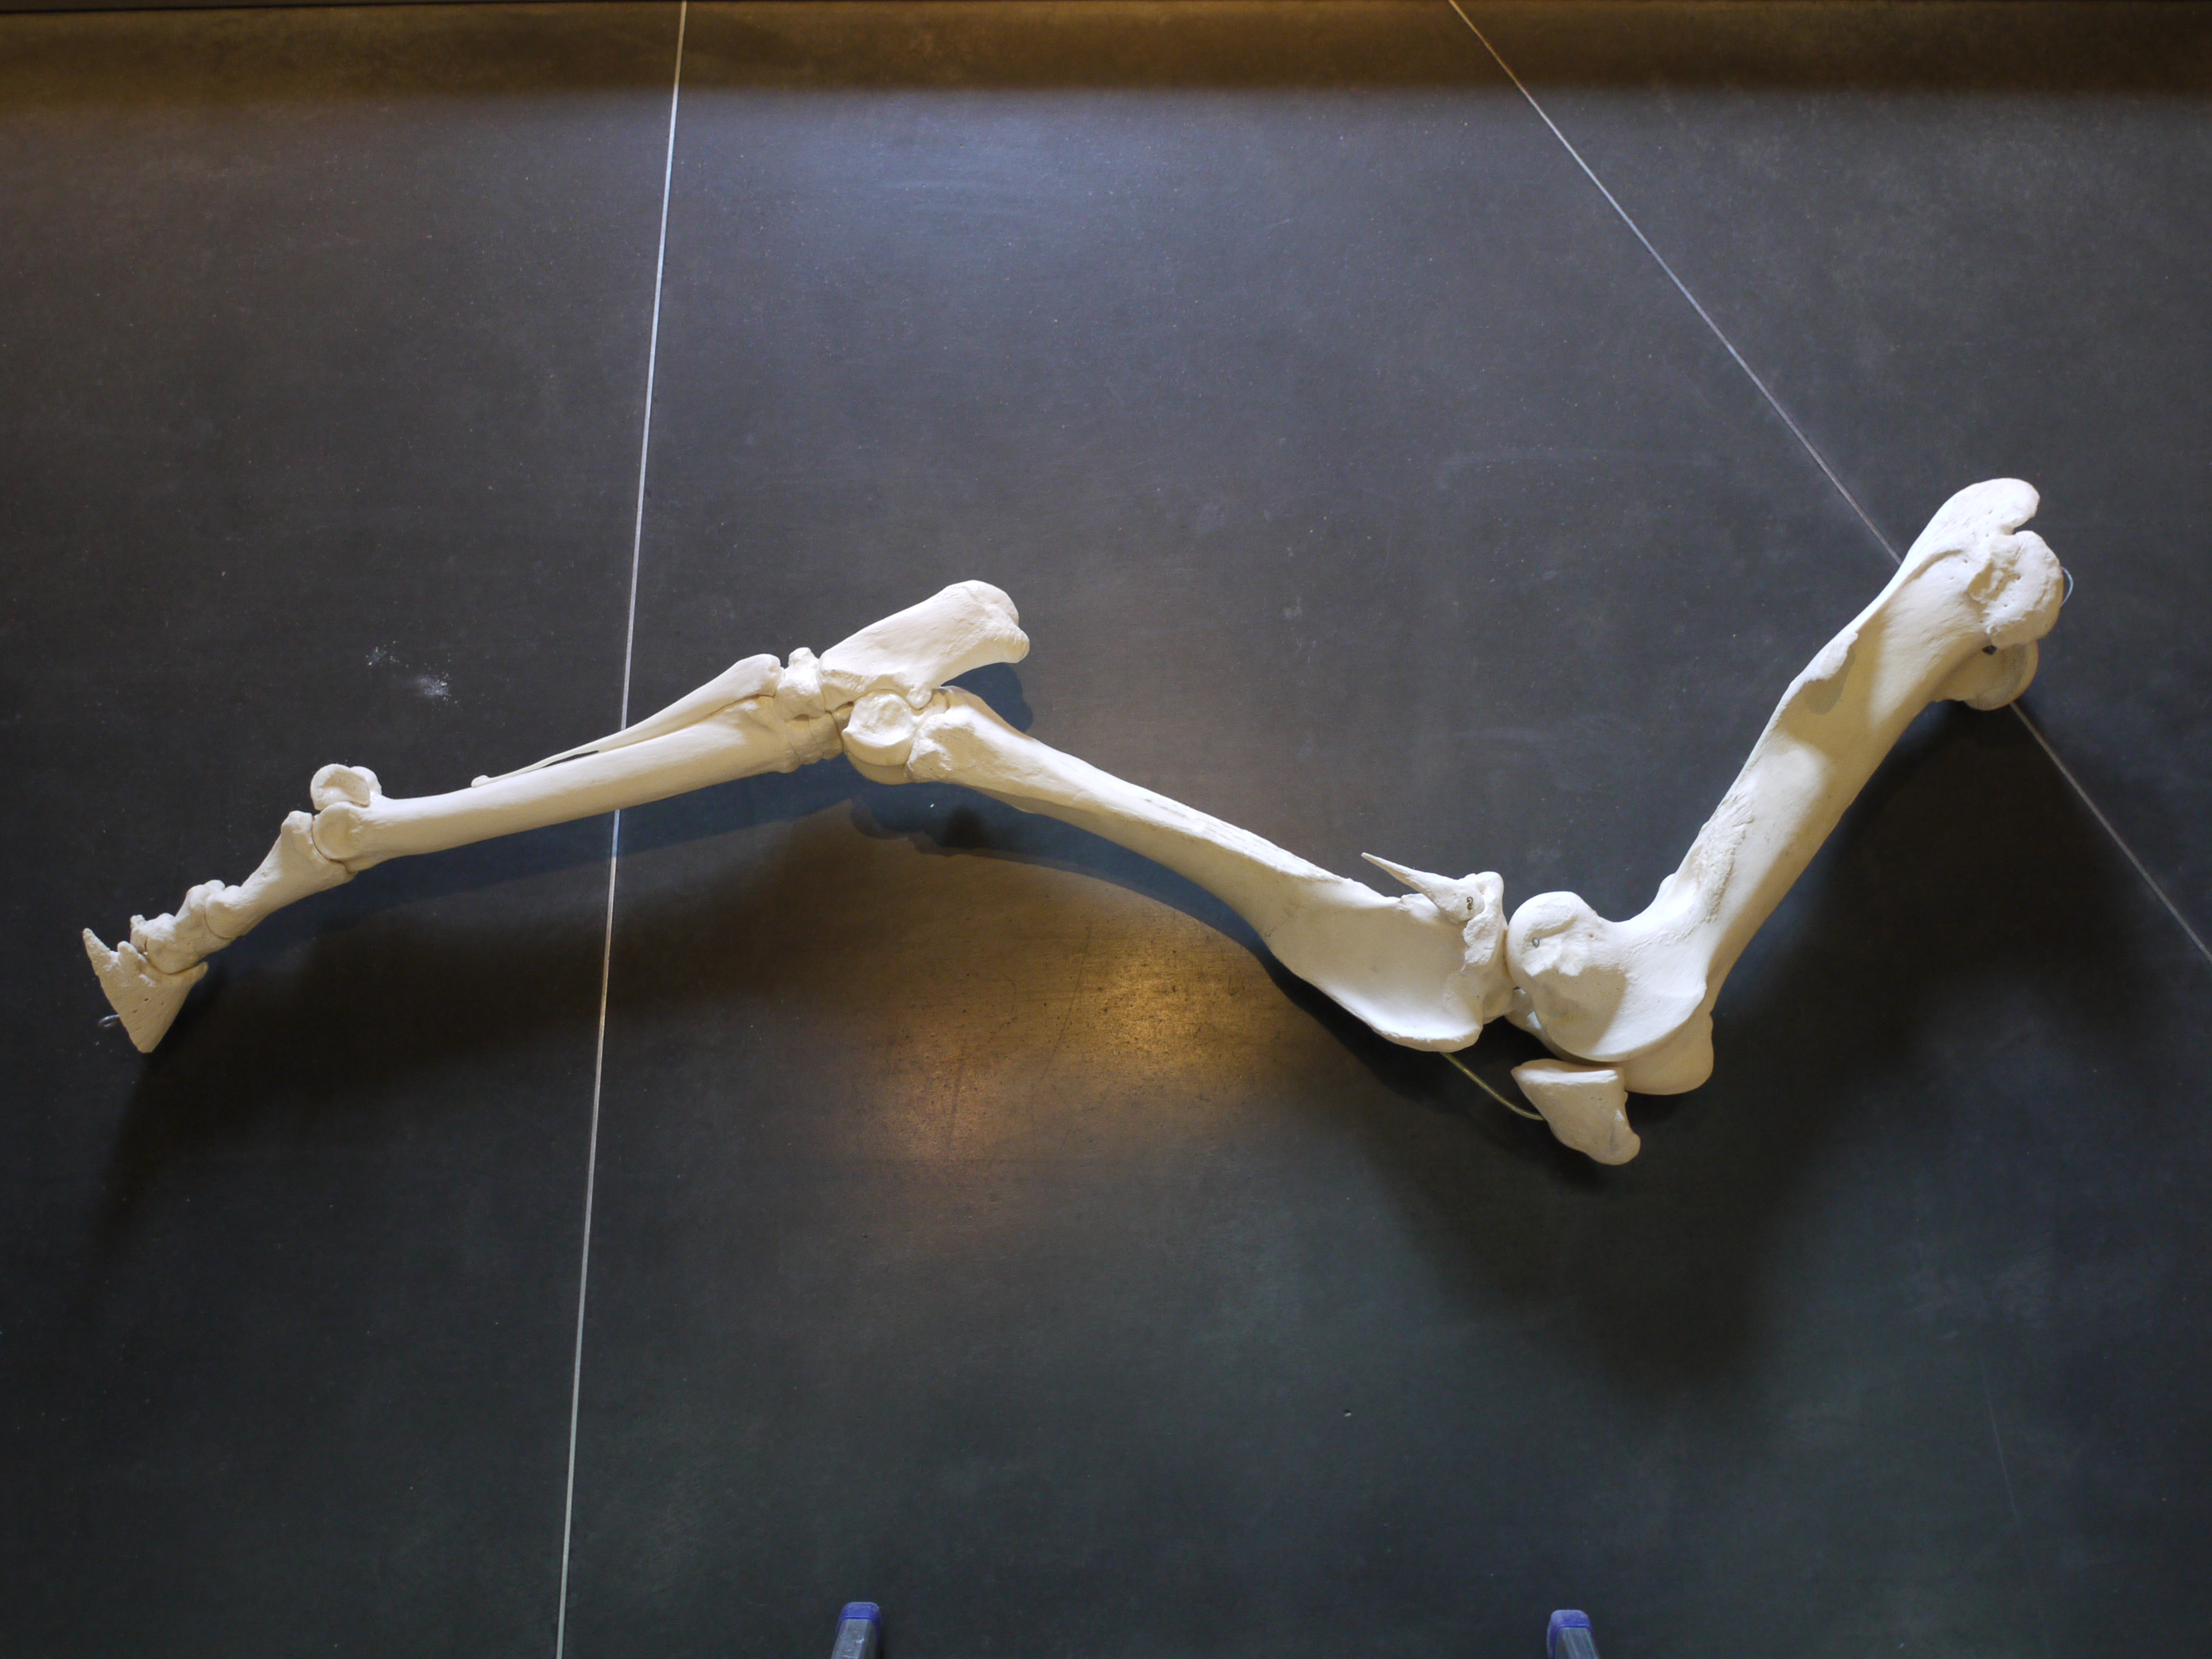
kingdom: Animalia
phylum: Chordata
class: Mammalia
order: Perissodactyla
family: Equidae
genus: Equus
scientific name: Equus caballus
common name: Horse
